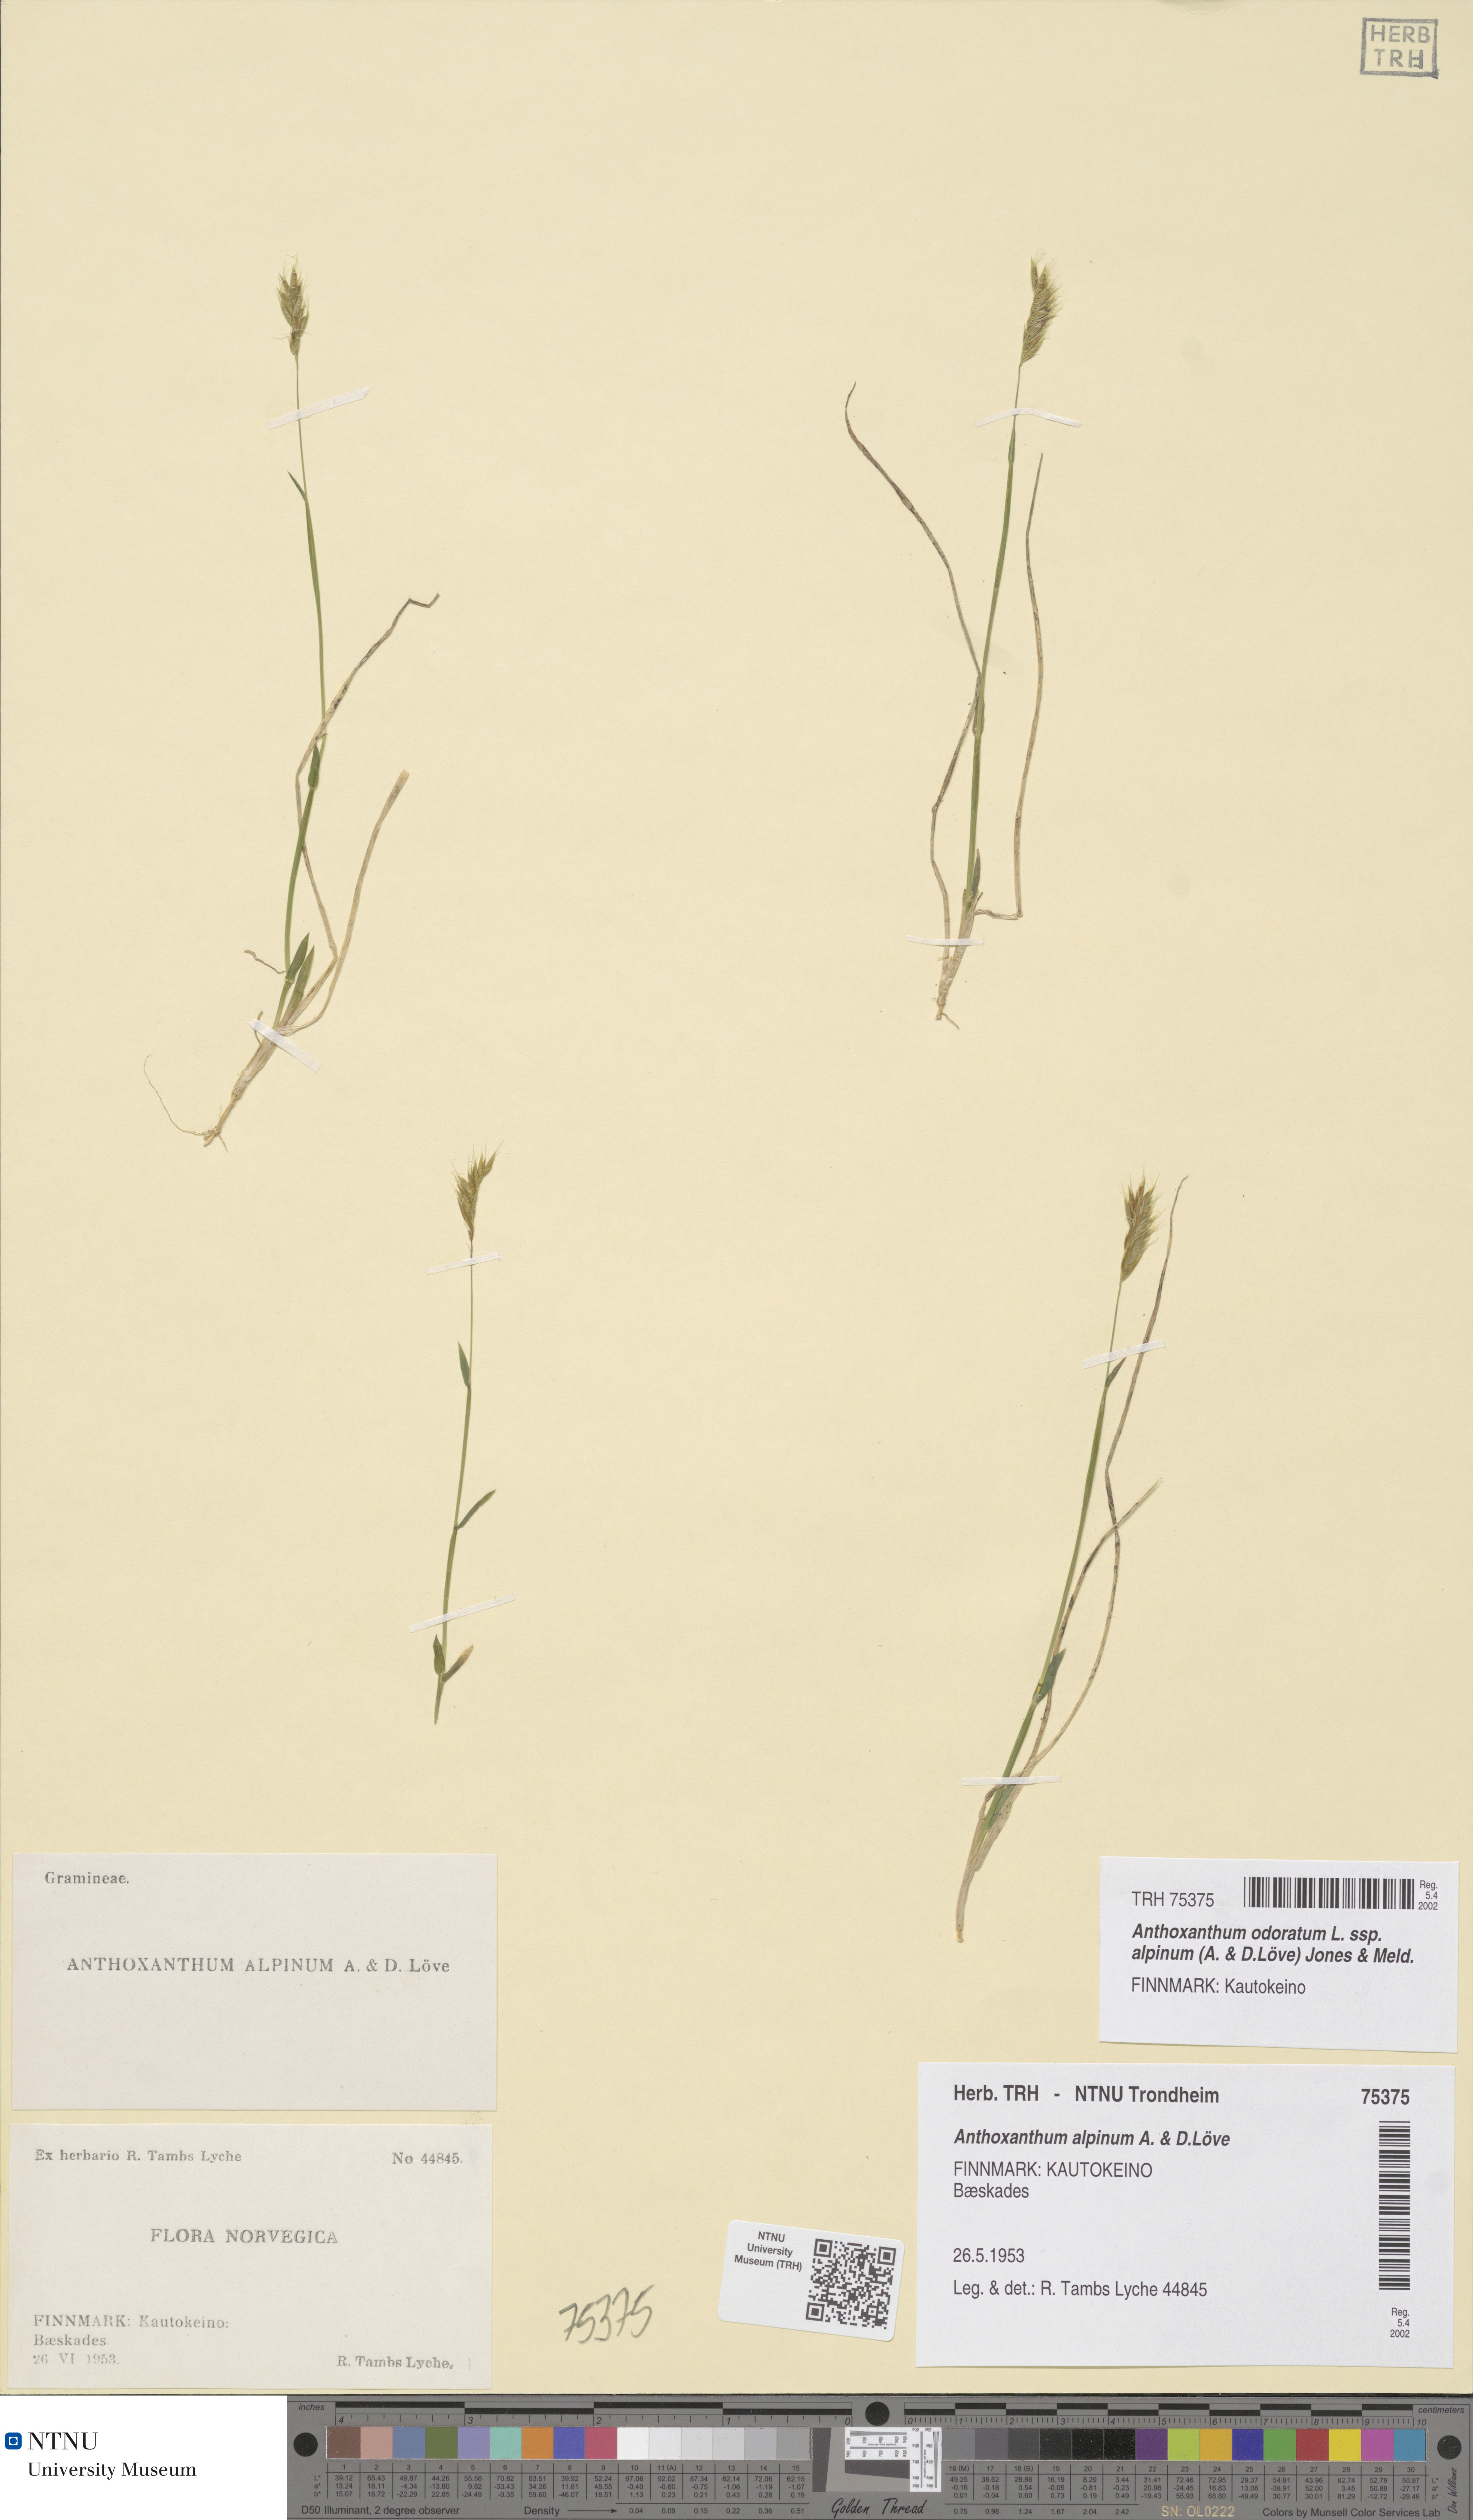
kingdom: Plantae
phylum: Tracheophyta
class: Liliopsida
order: Poales
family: Poaceae
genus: Anthoxanthum
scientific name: Anthoxanthum nipponicum
